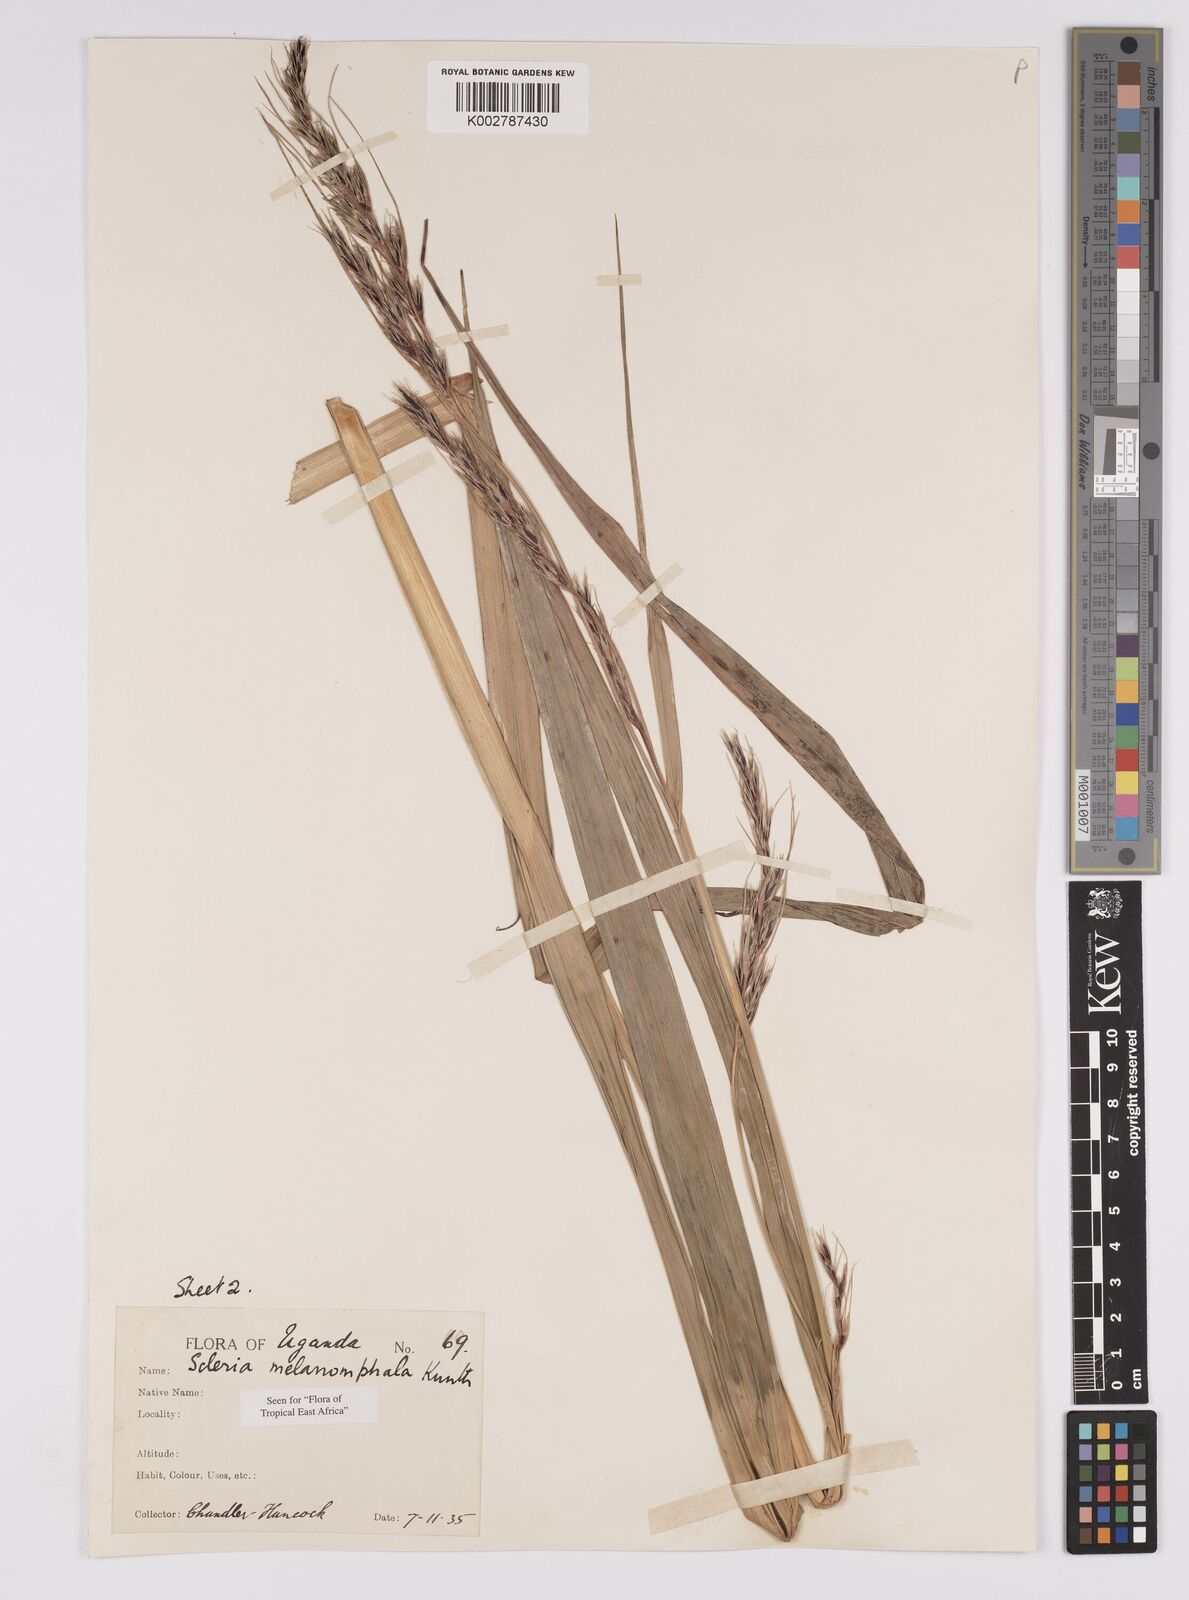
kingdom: Plantae
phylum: Tracheophyta
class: Liliopsida
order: Poales
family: Cyperaceae
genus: Scleria
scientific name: Scleria melanomphala
